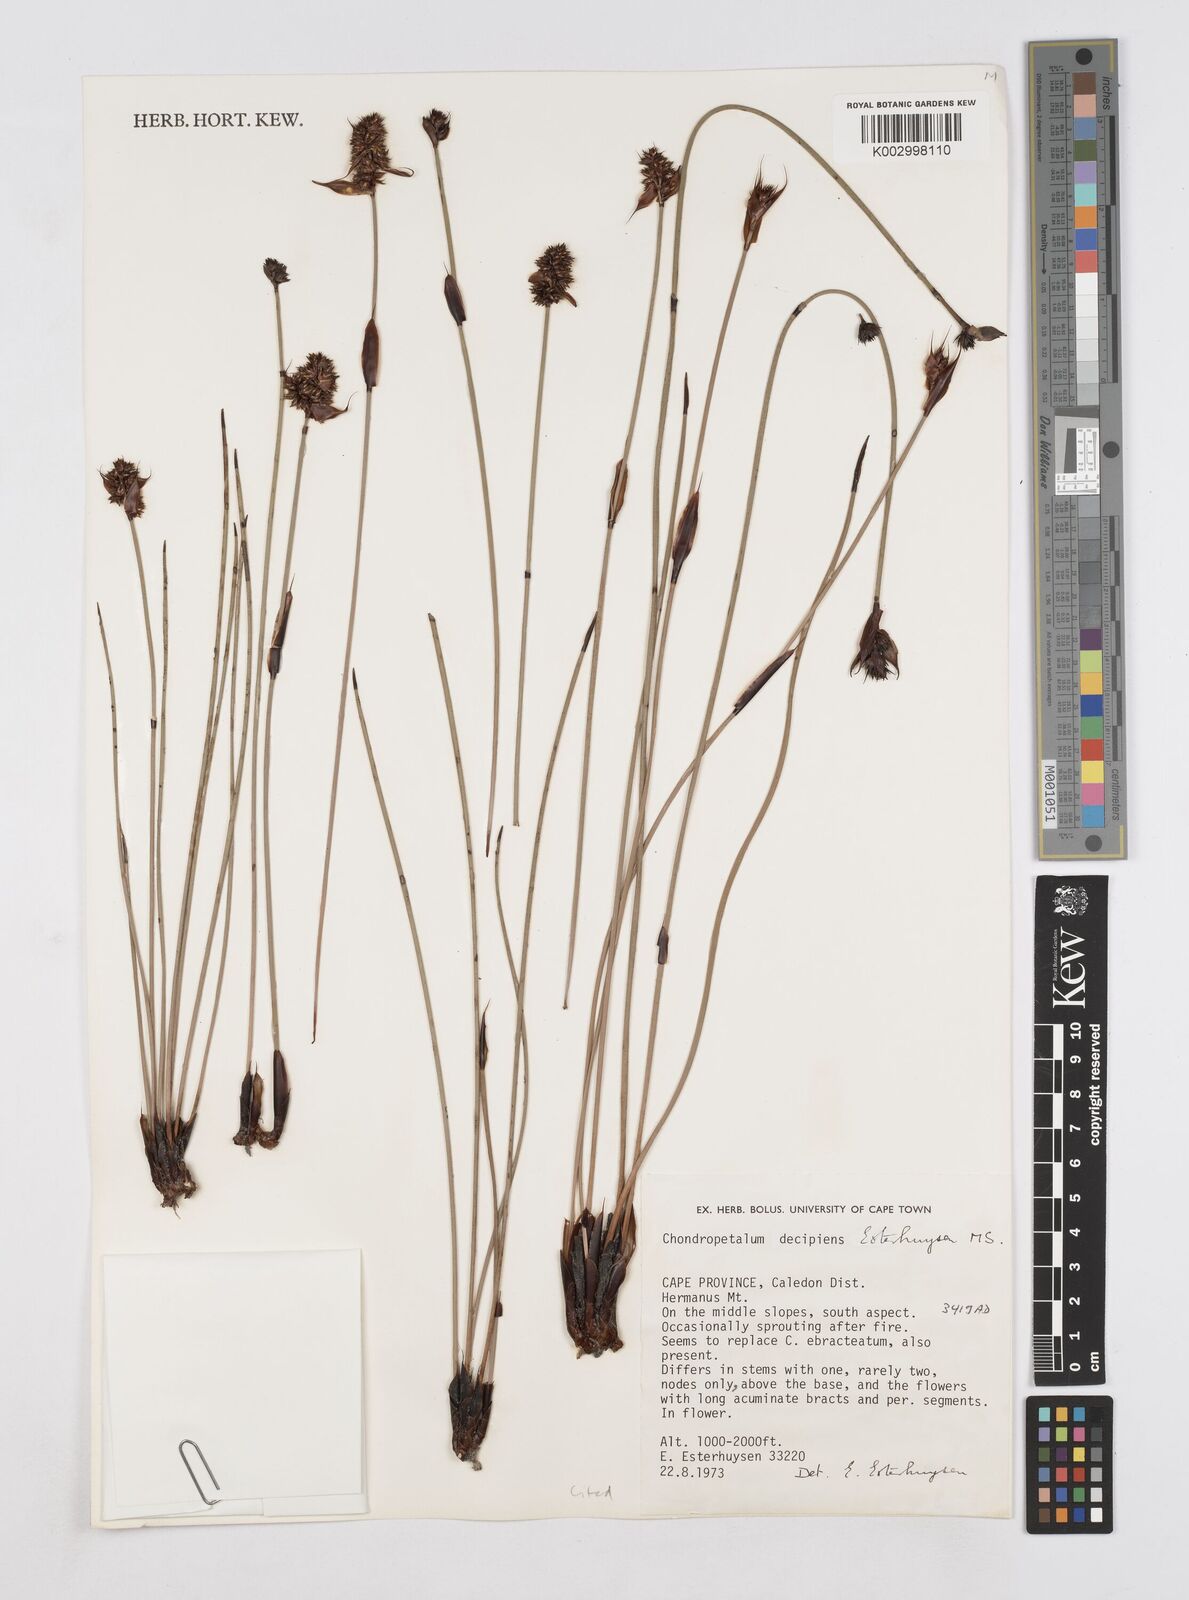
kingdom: Plantae
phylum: Tracheophyta
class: Liliopsida
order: Poales
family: Restionaceae
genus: Elegia
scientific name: Elegia
